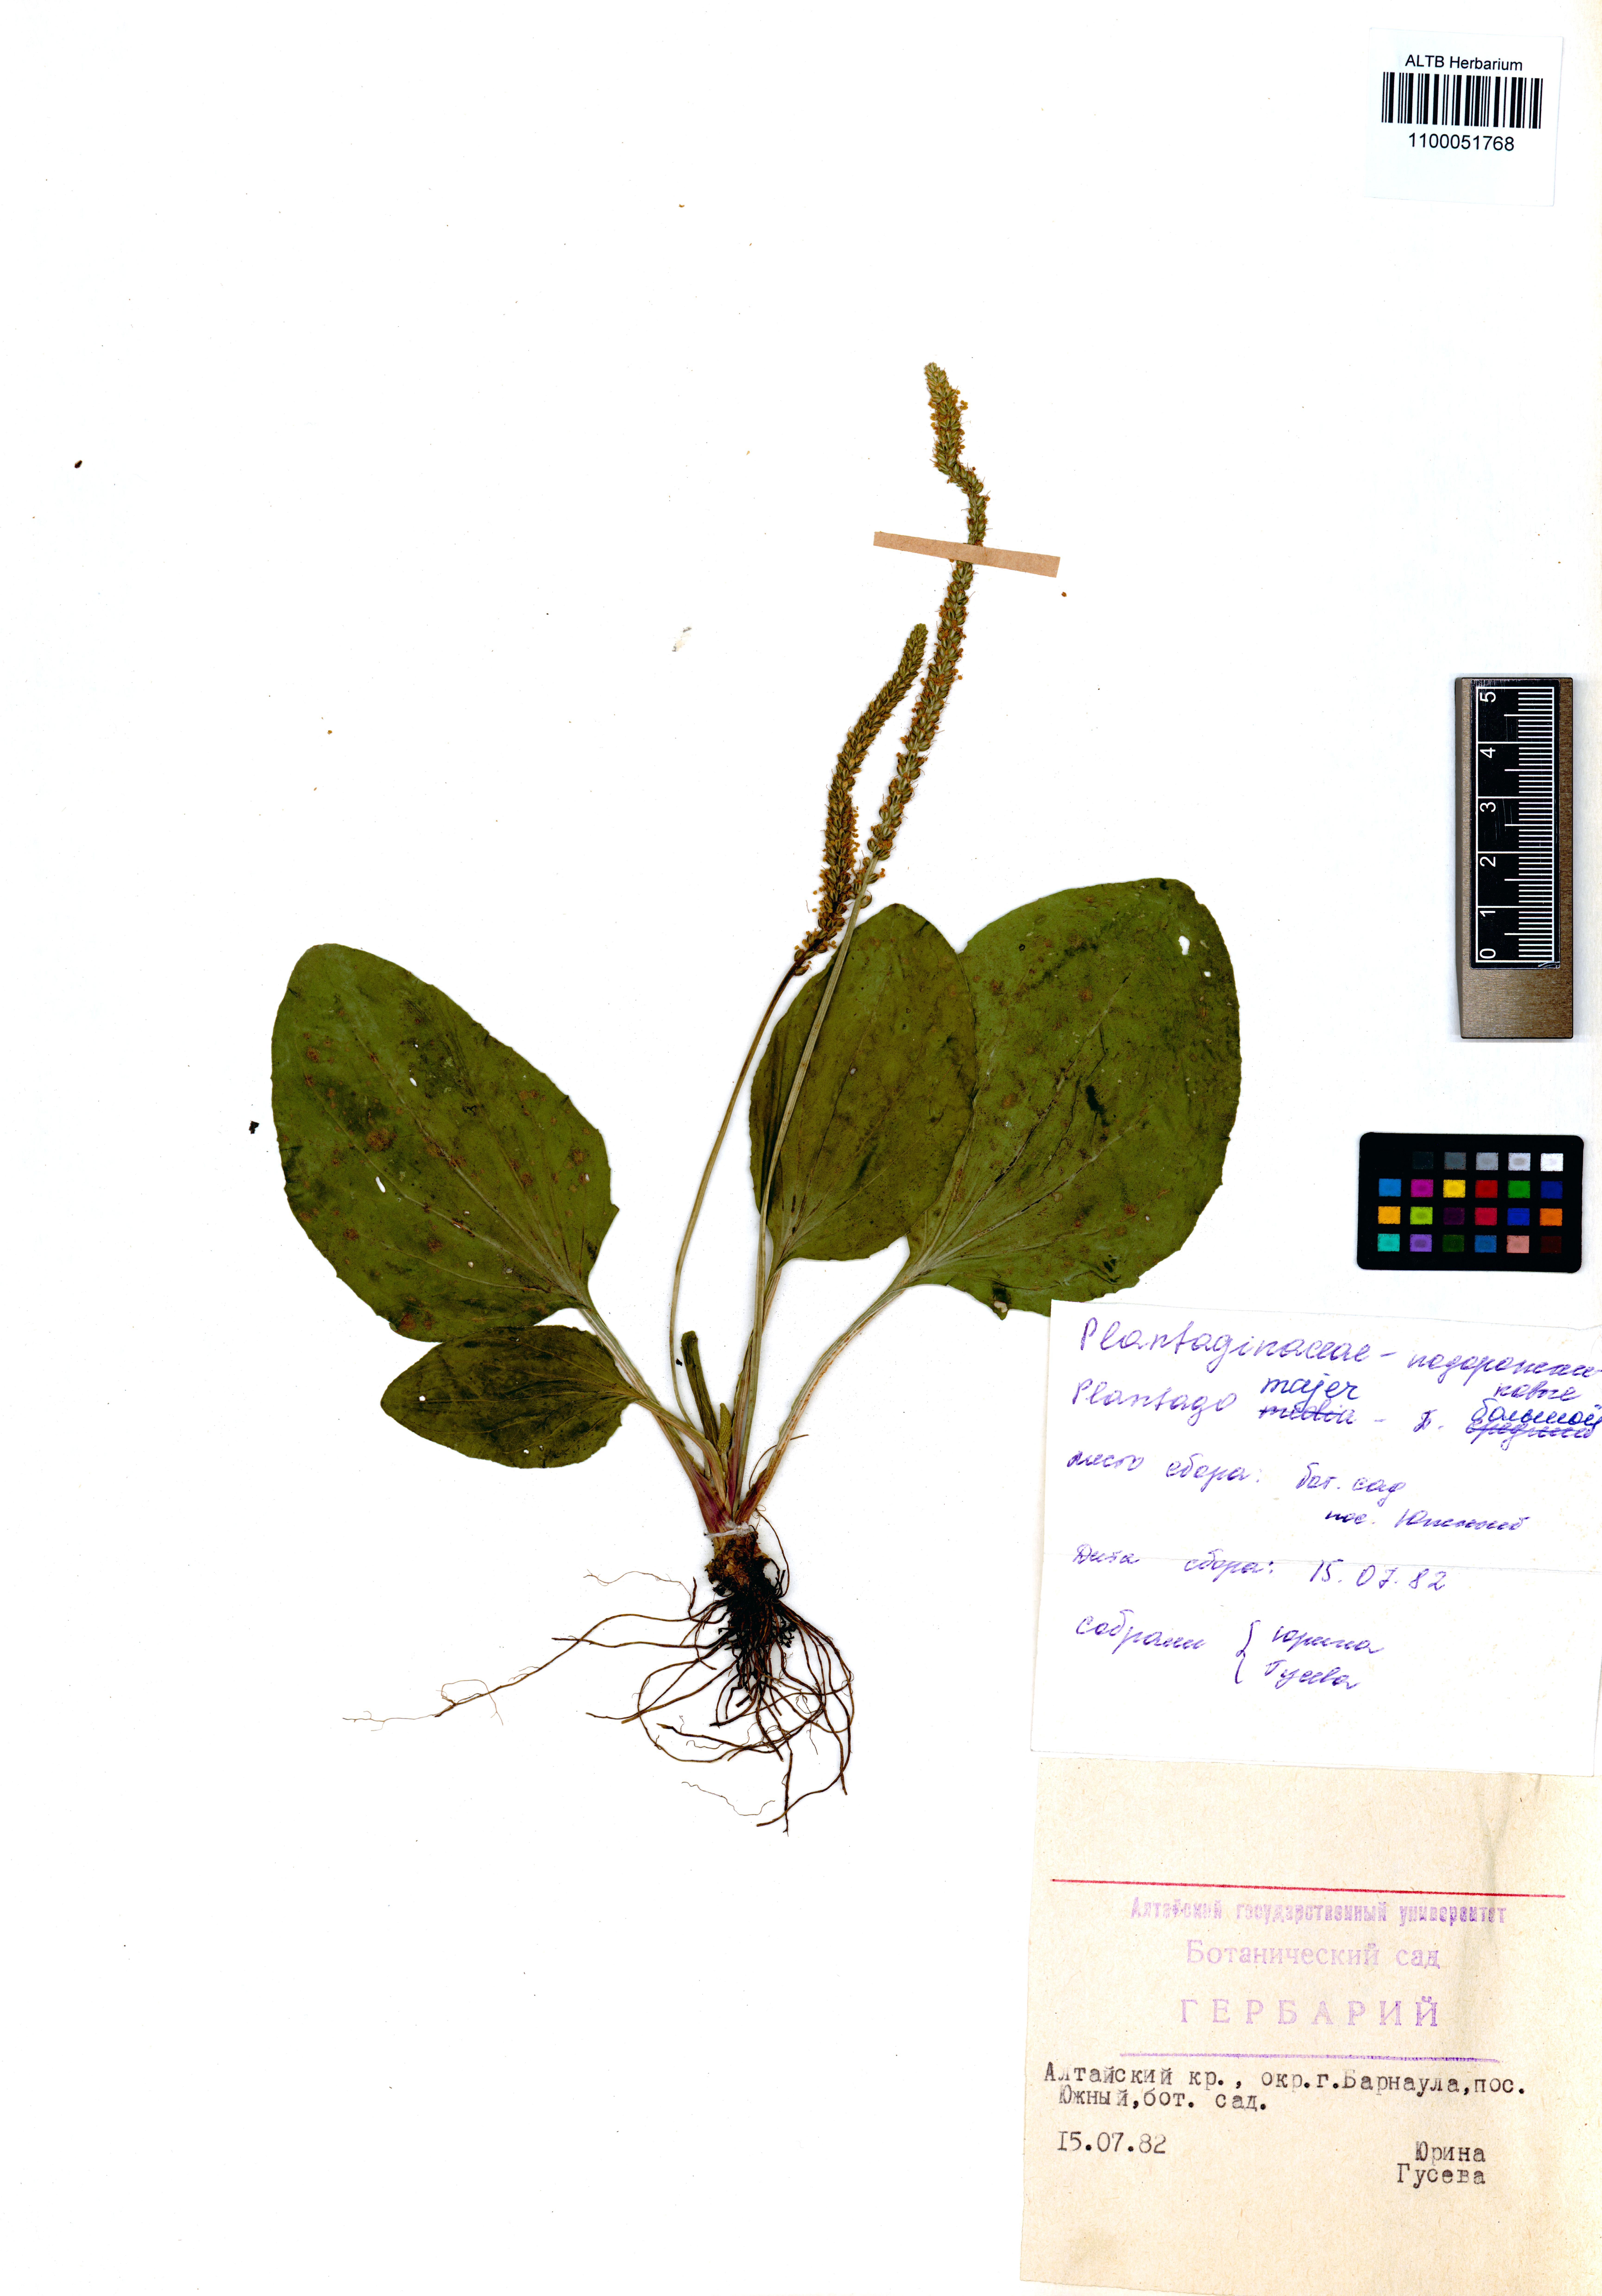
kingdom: Plantae
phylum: Tracheophyta
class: Magnoliopsida
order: Lamiales
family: Plantaginaceae
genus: Plantago
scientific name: Plantago major
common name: Common plantain
